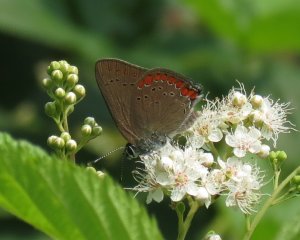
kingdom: Animalia
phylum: Arthropoda
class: Insecta
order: Lepidoptera
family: Lycaenidae
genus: Harkenclenus
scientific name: Harkenclenus titus
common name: Coral Hairstreak
